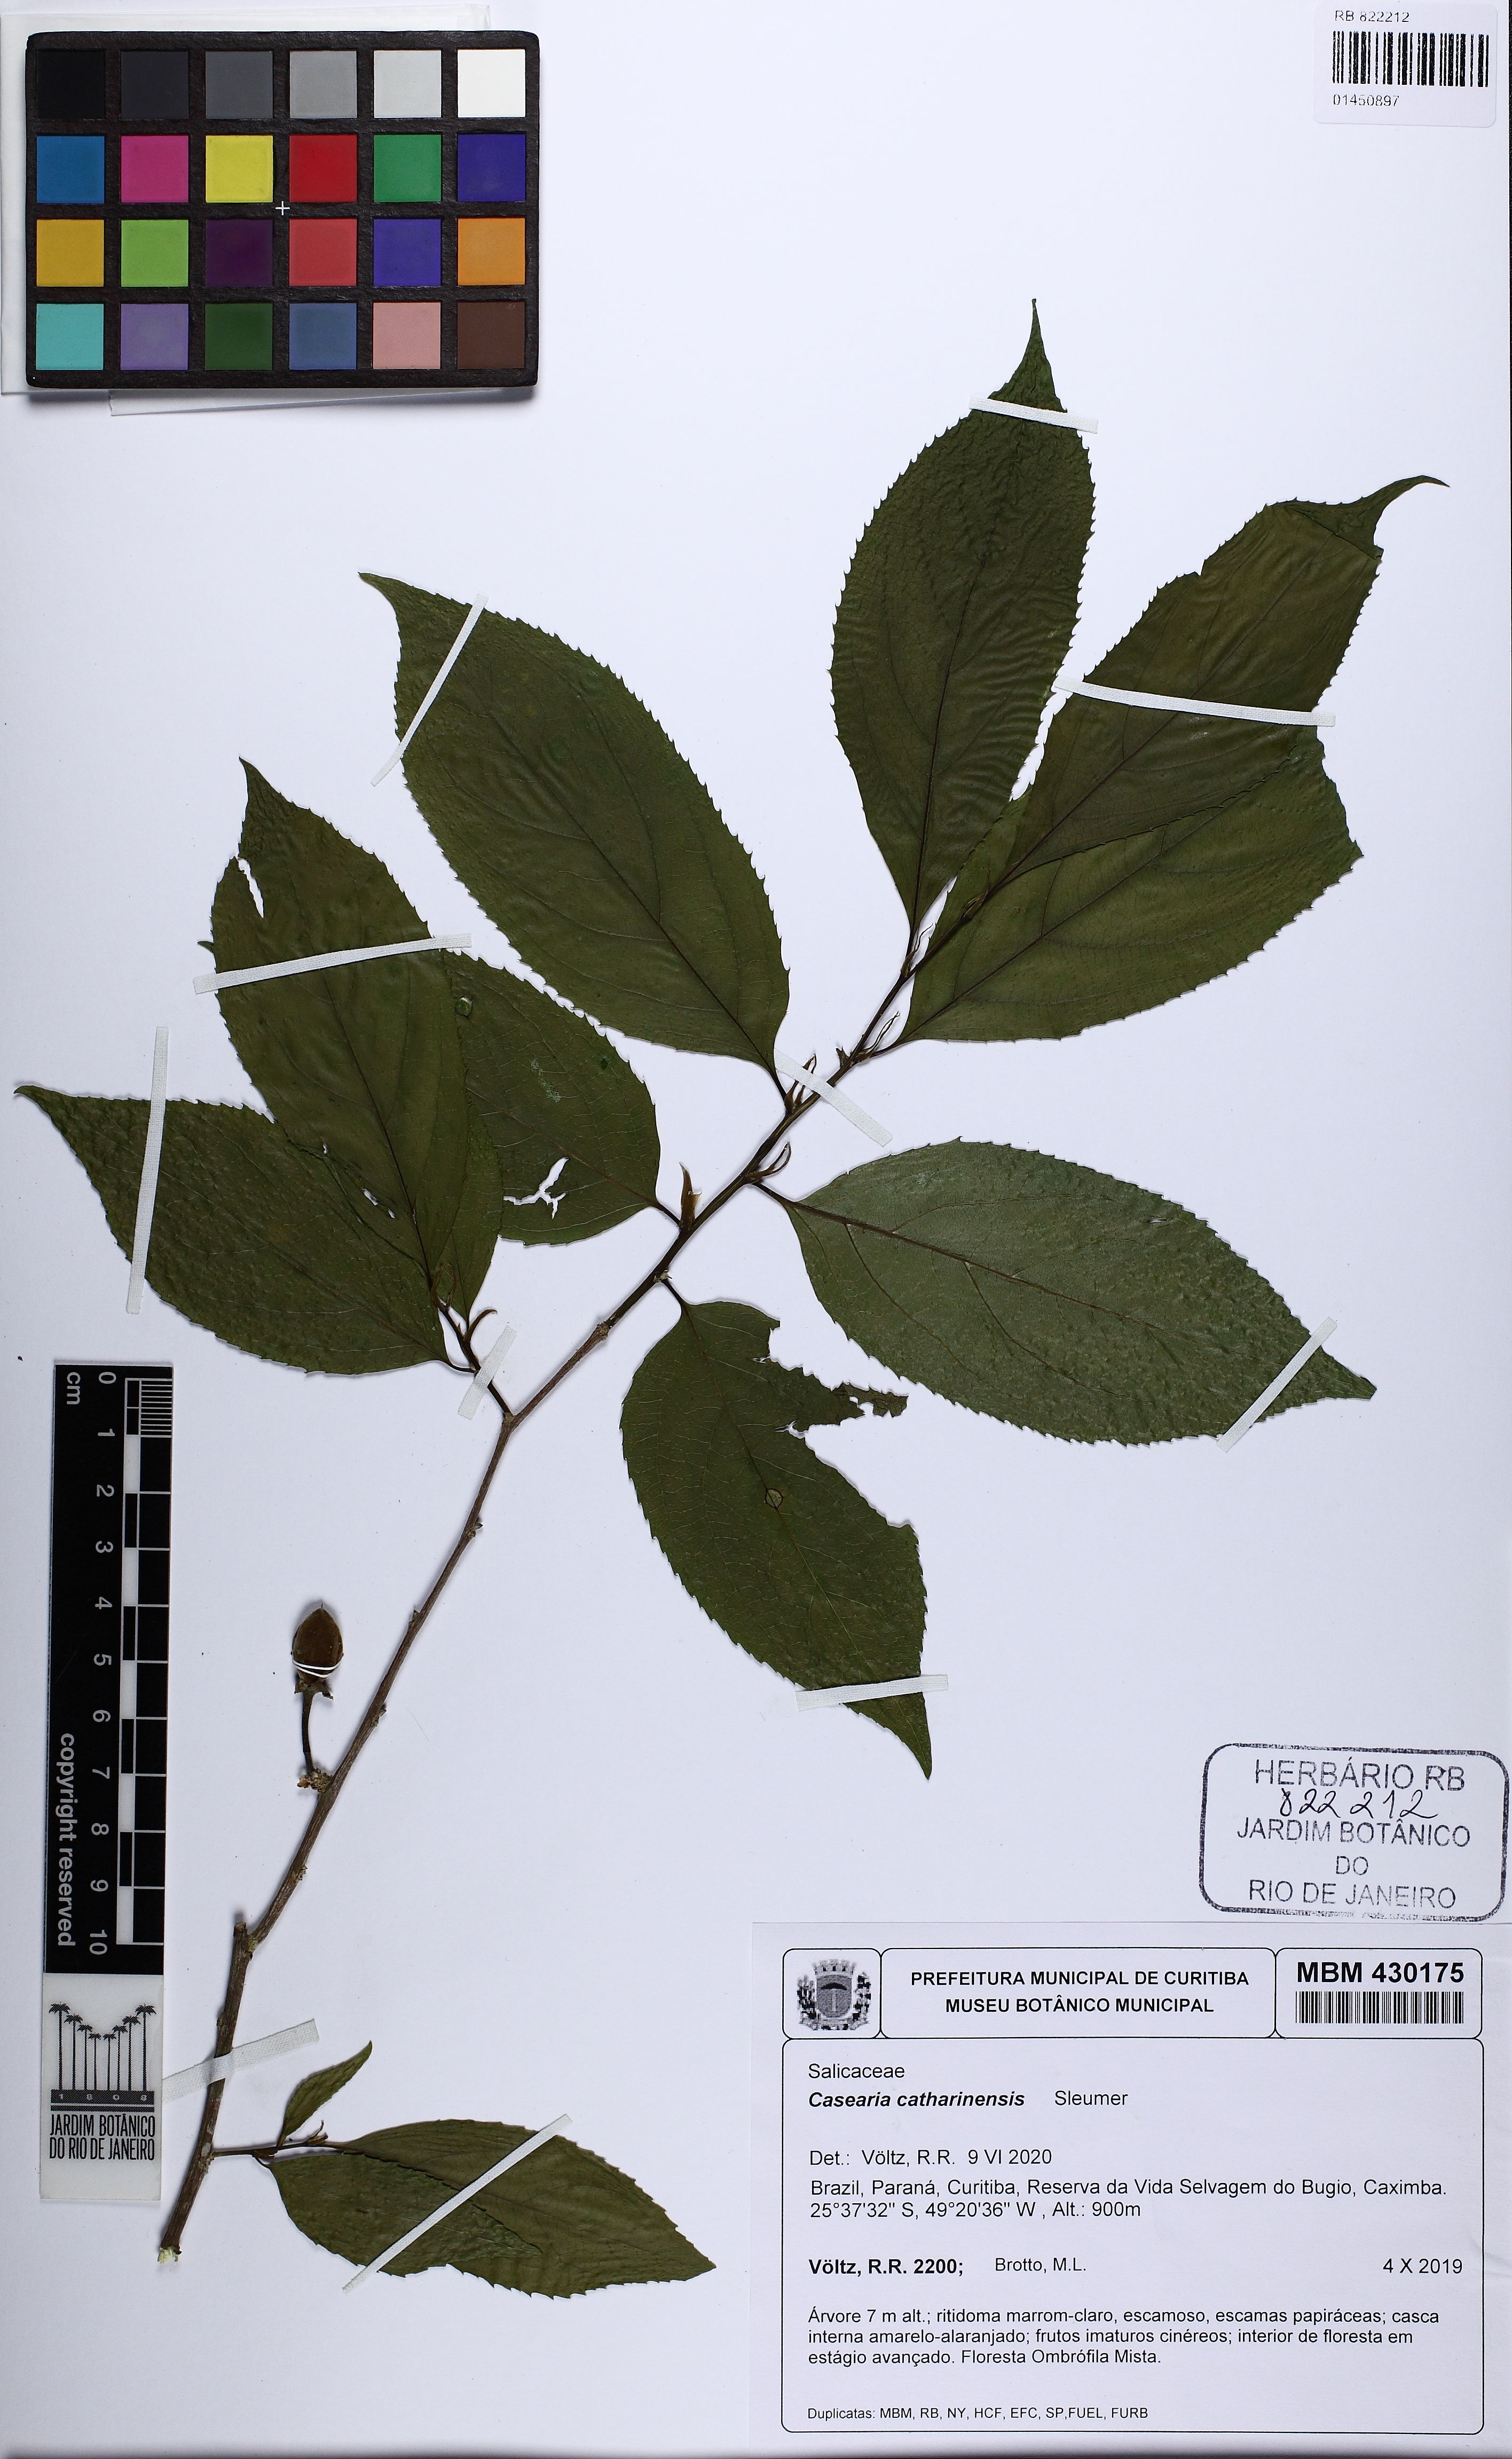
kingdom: Plantae
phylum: Tracheophyta
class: Magnoliopsida
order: Malpighiales
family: Salicaceae
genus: Casearia
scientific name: Casearia catharinensis
